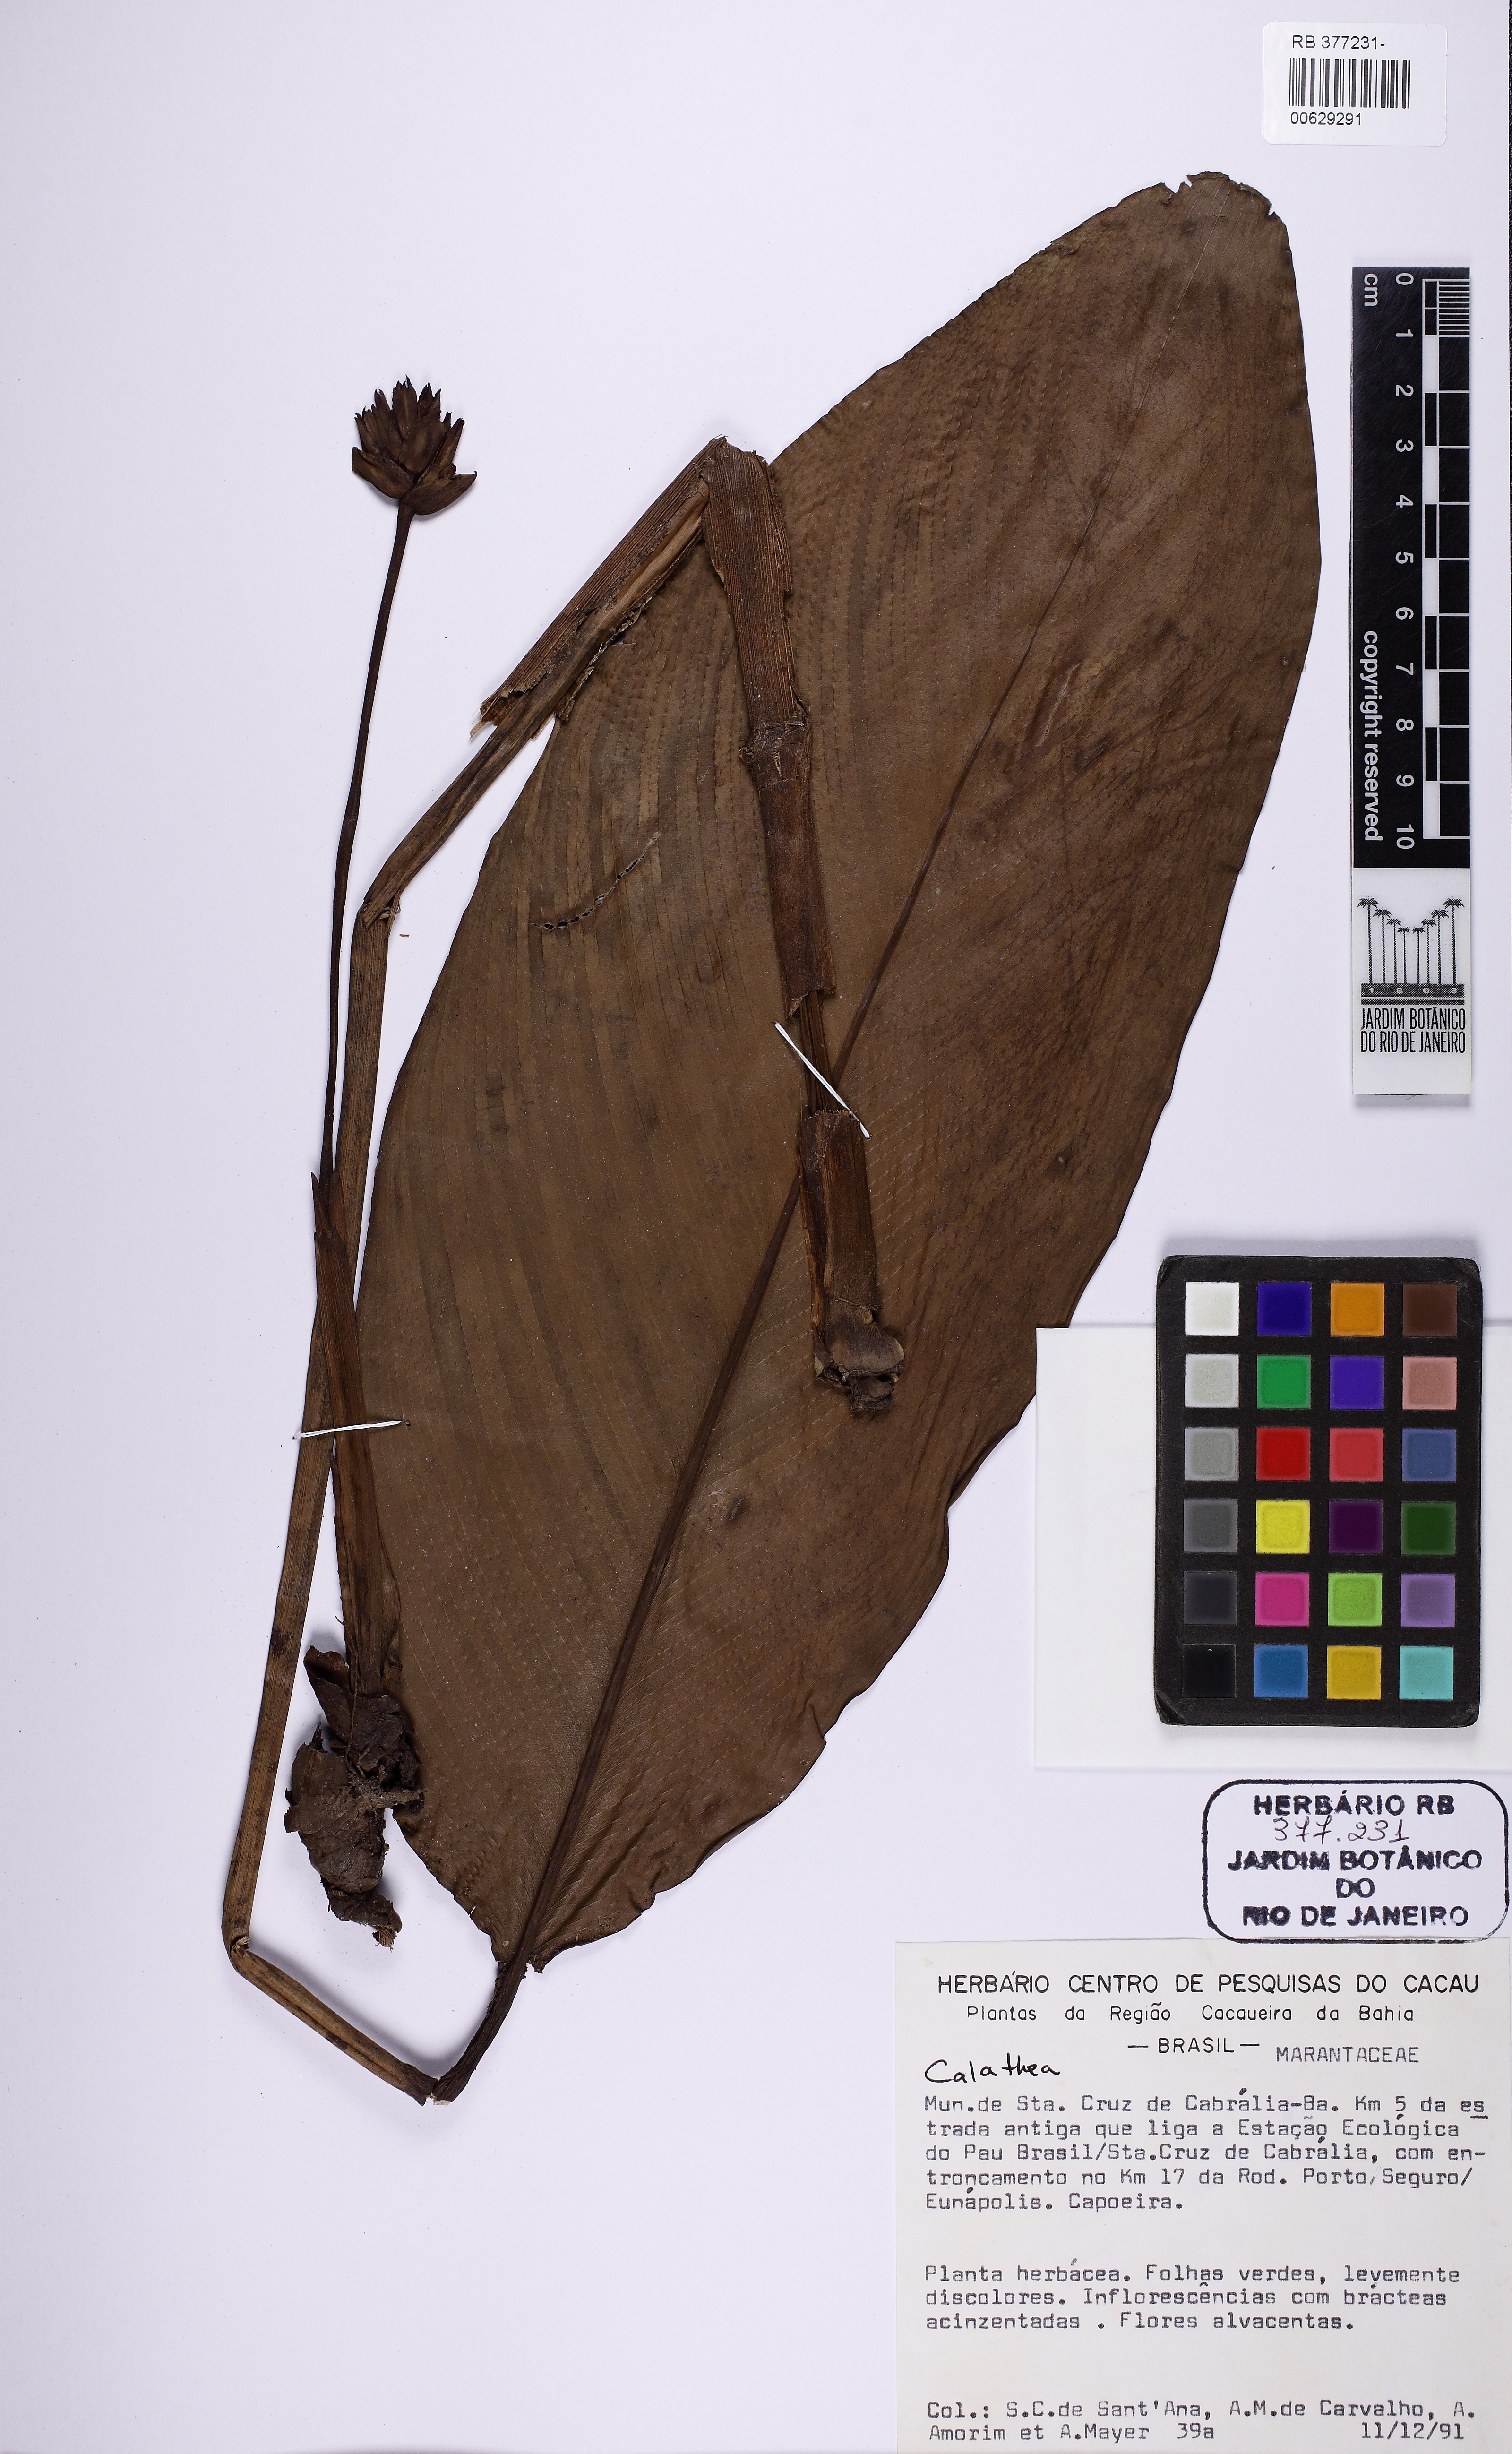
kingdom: Plantae
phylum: Tracheophyta
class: Liliopsida
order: Zingiberales
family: Marantaceae
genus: Calathea
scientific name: Calathea
